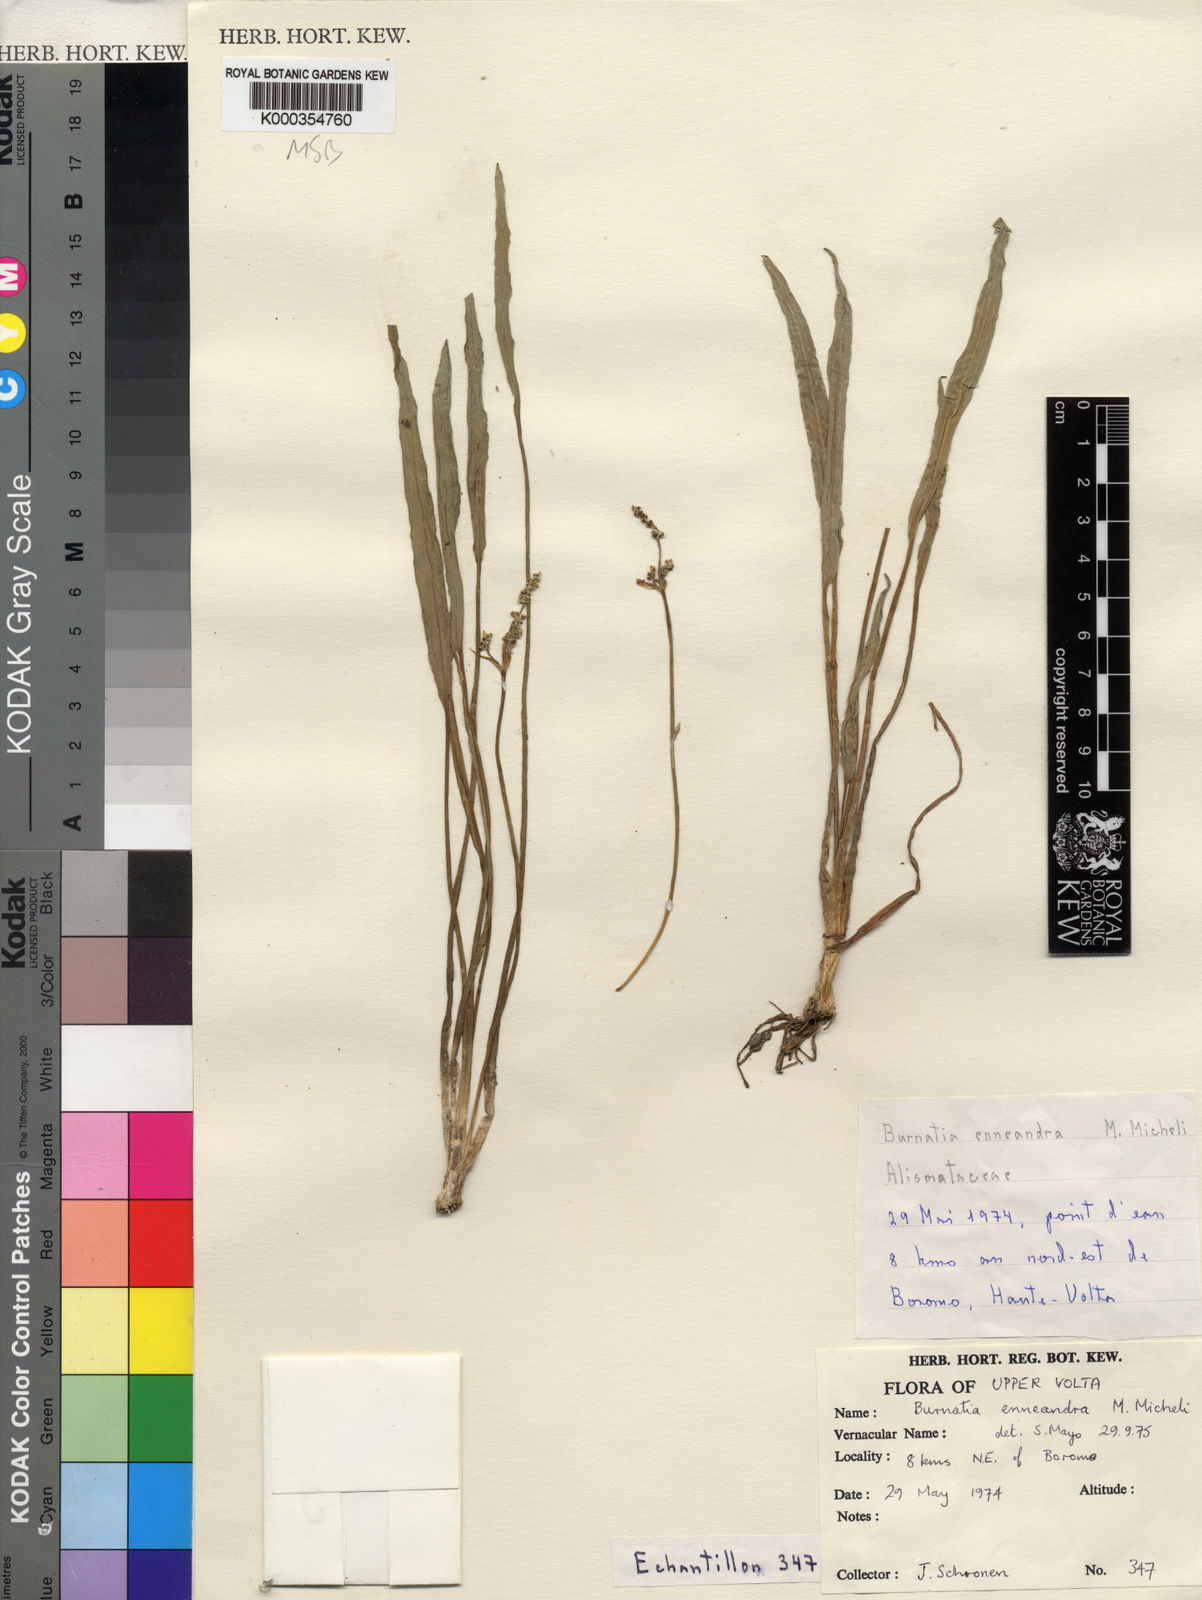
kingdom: Plantae
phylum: Tracheophyta
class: Liliopsida
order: Alismatales
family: Alismataceae
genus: Burnatia
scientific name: Burnatia enneandra
